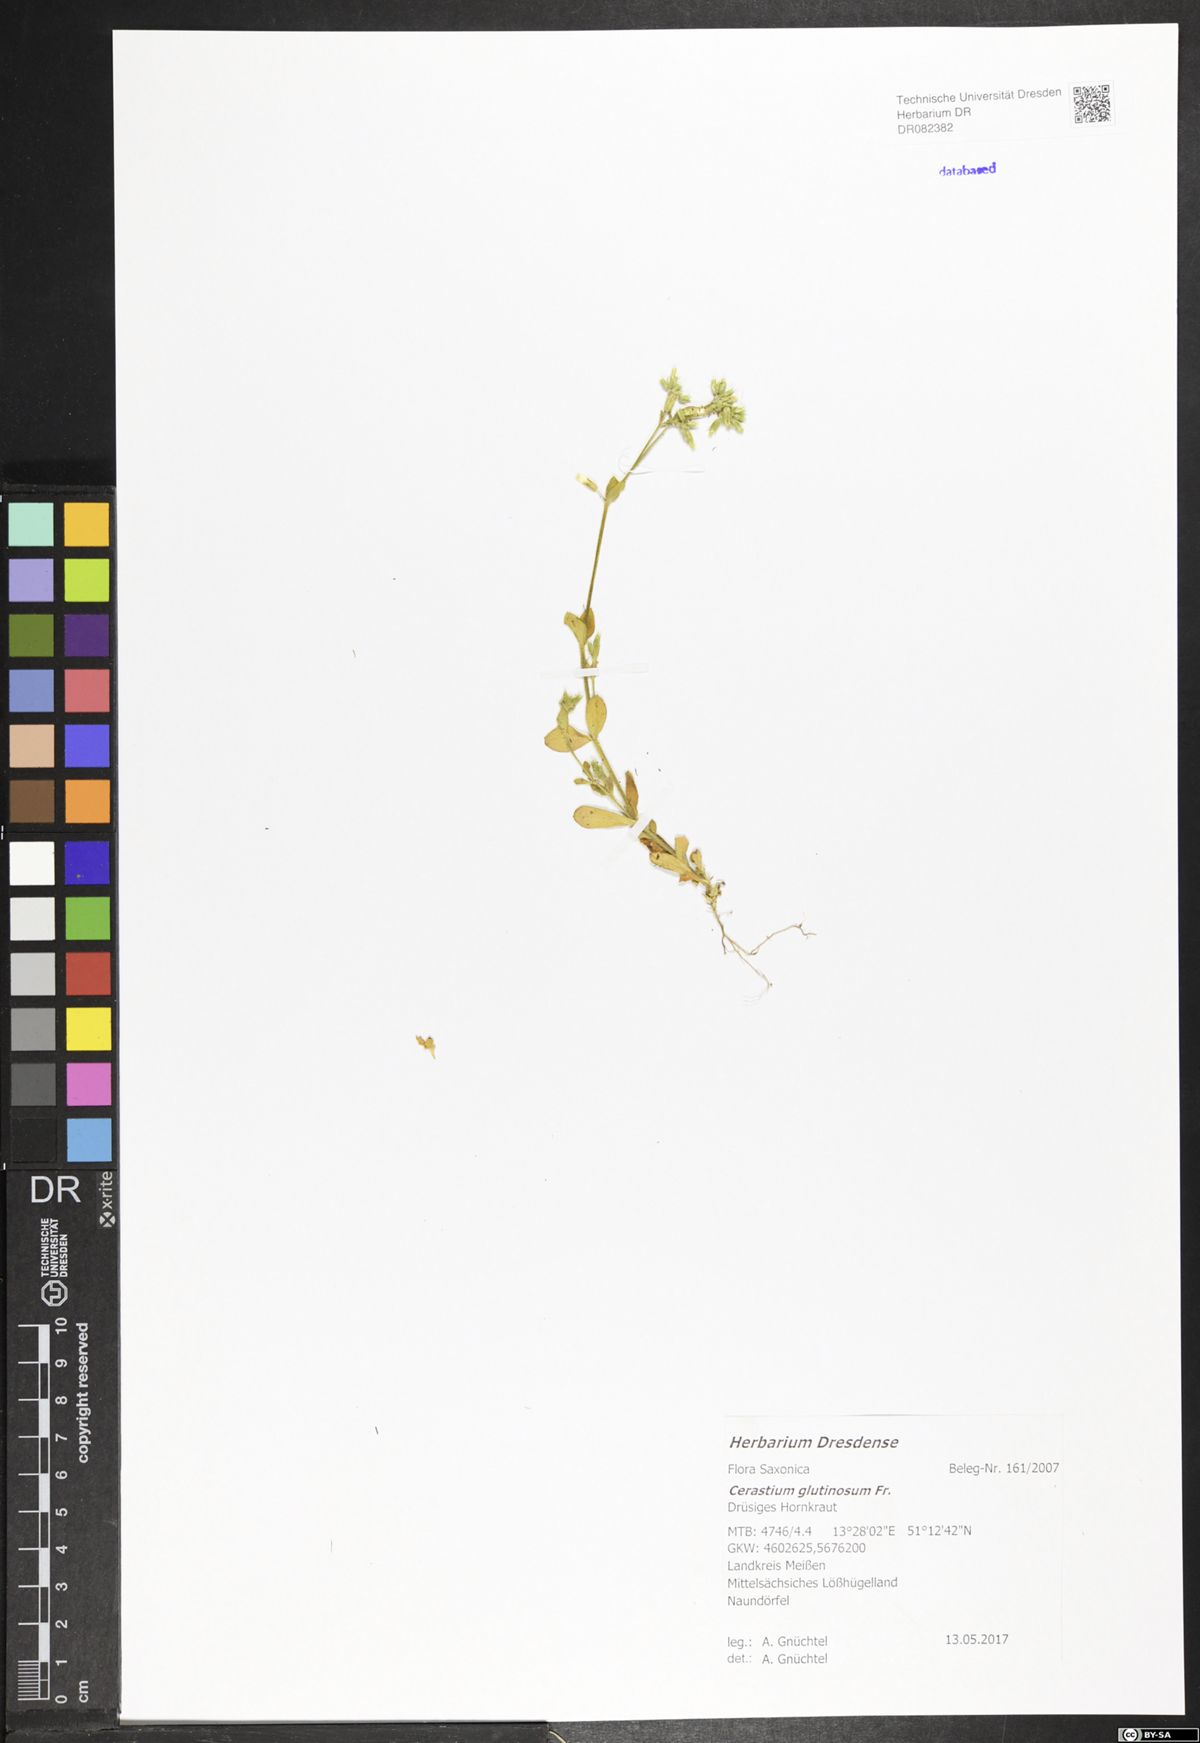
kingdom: Plantae
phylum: Tracheophyta
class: Magnoliopsida
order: Caryophyllales
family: Caryophyllaceae
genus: Cerastium
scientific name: Cerastium glutinosum
